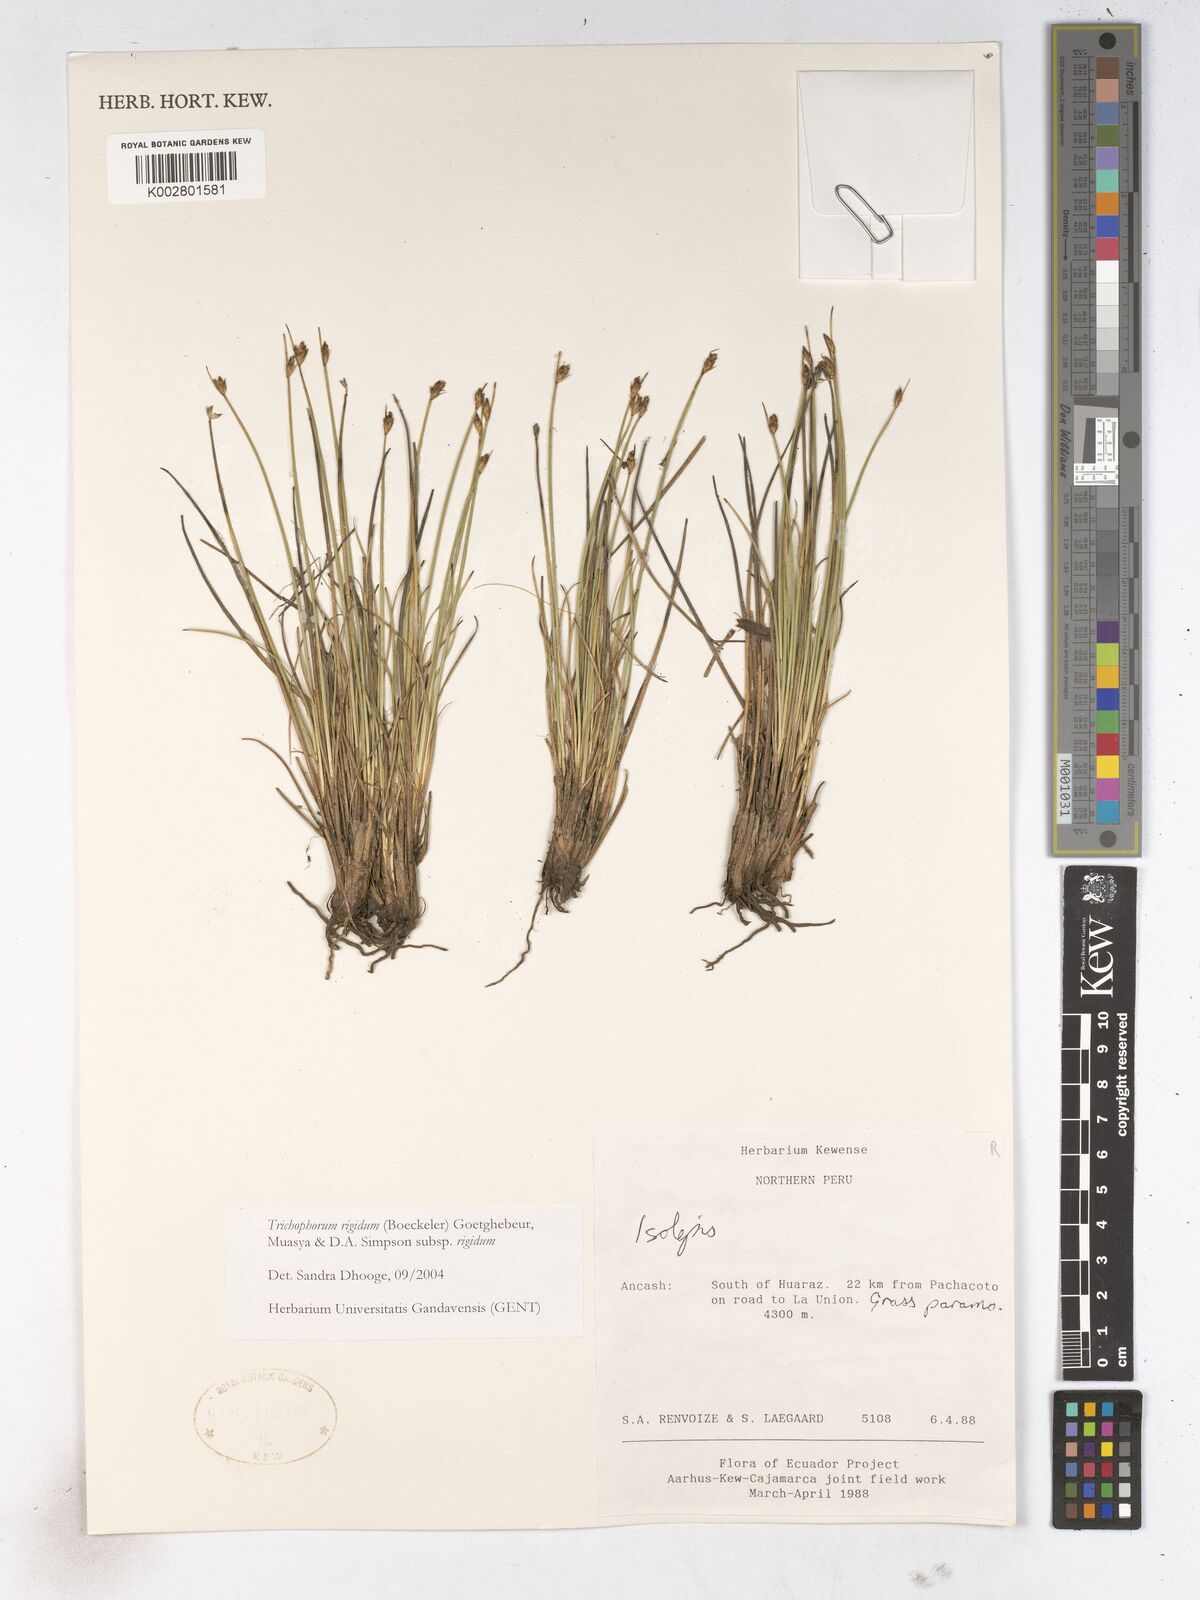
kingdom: Plantae
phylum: Tracheophyta
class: Liliopsida
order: Poales
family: Cyperaceae
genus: Trichophorum
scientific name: Trichophorum rigidum
